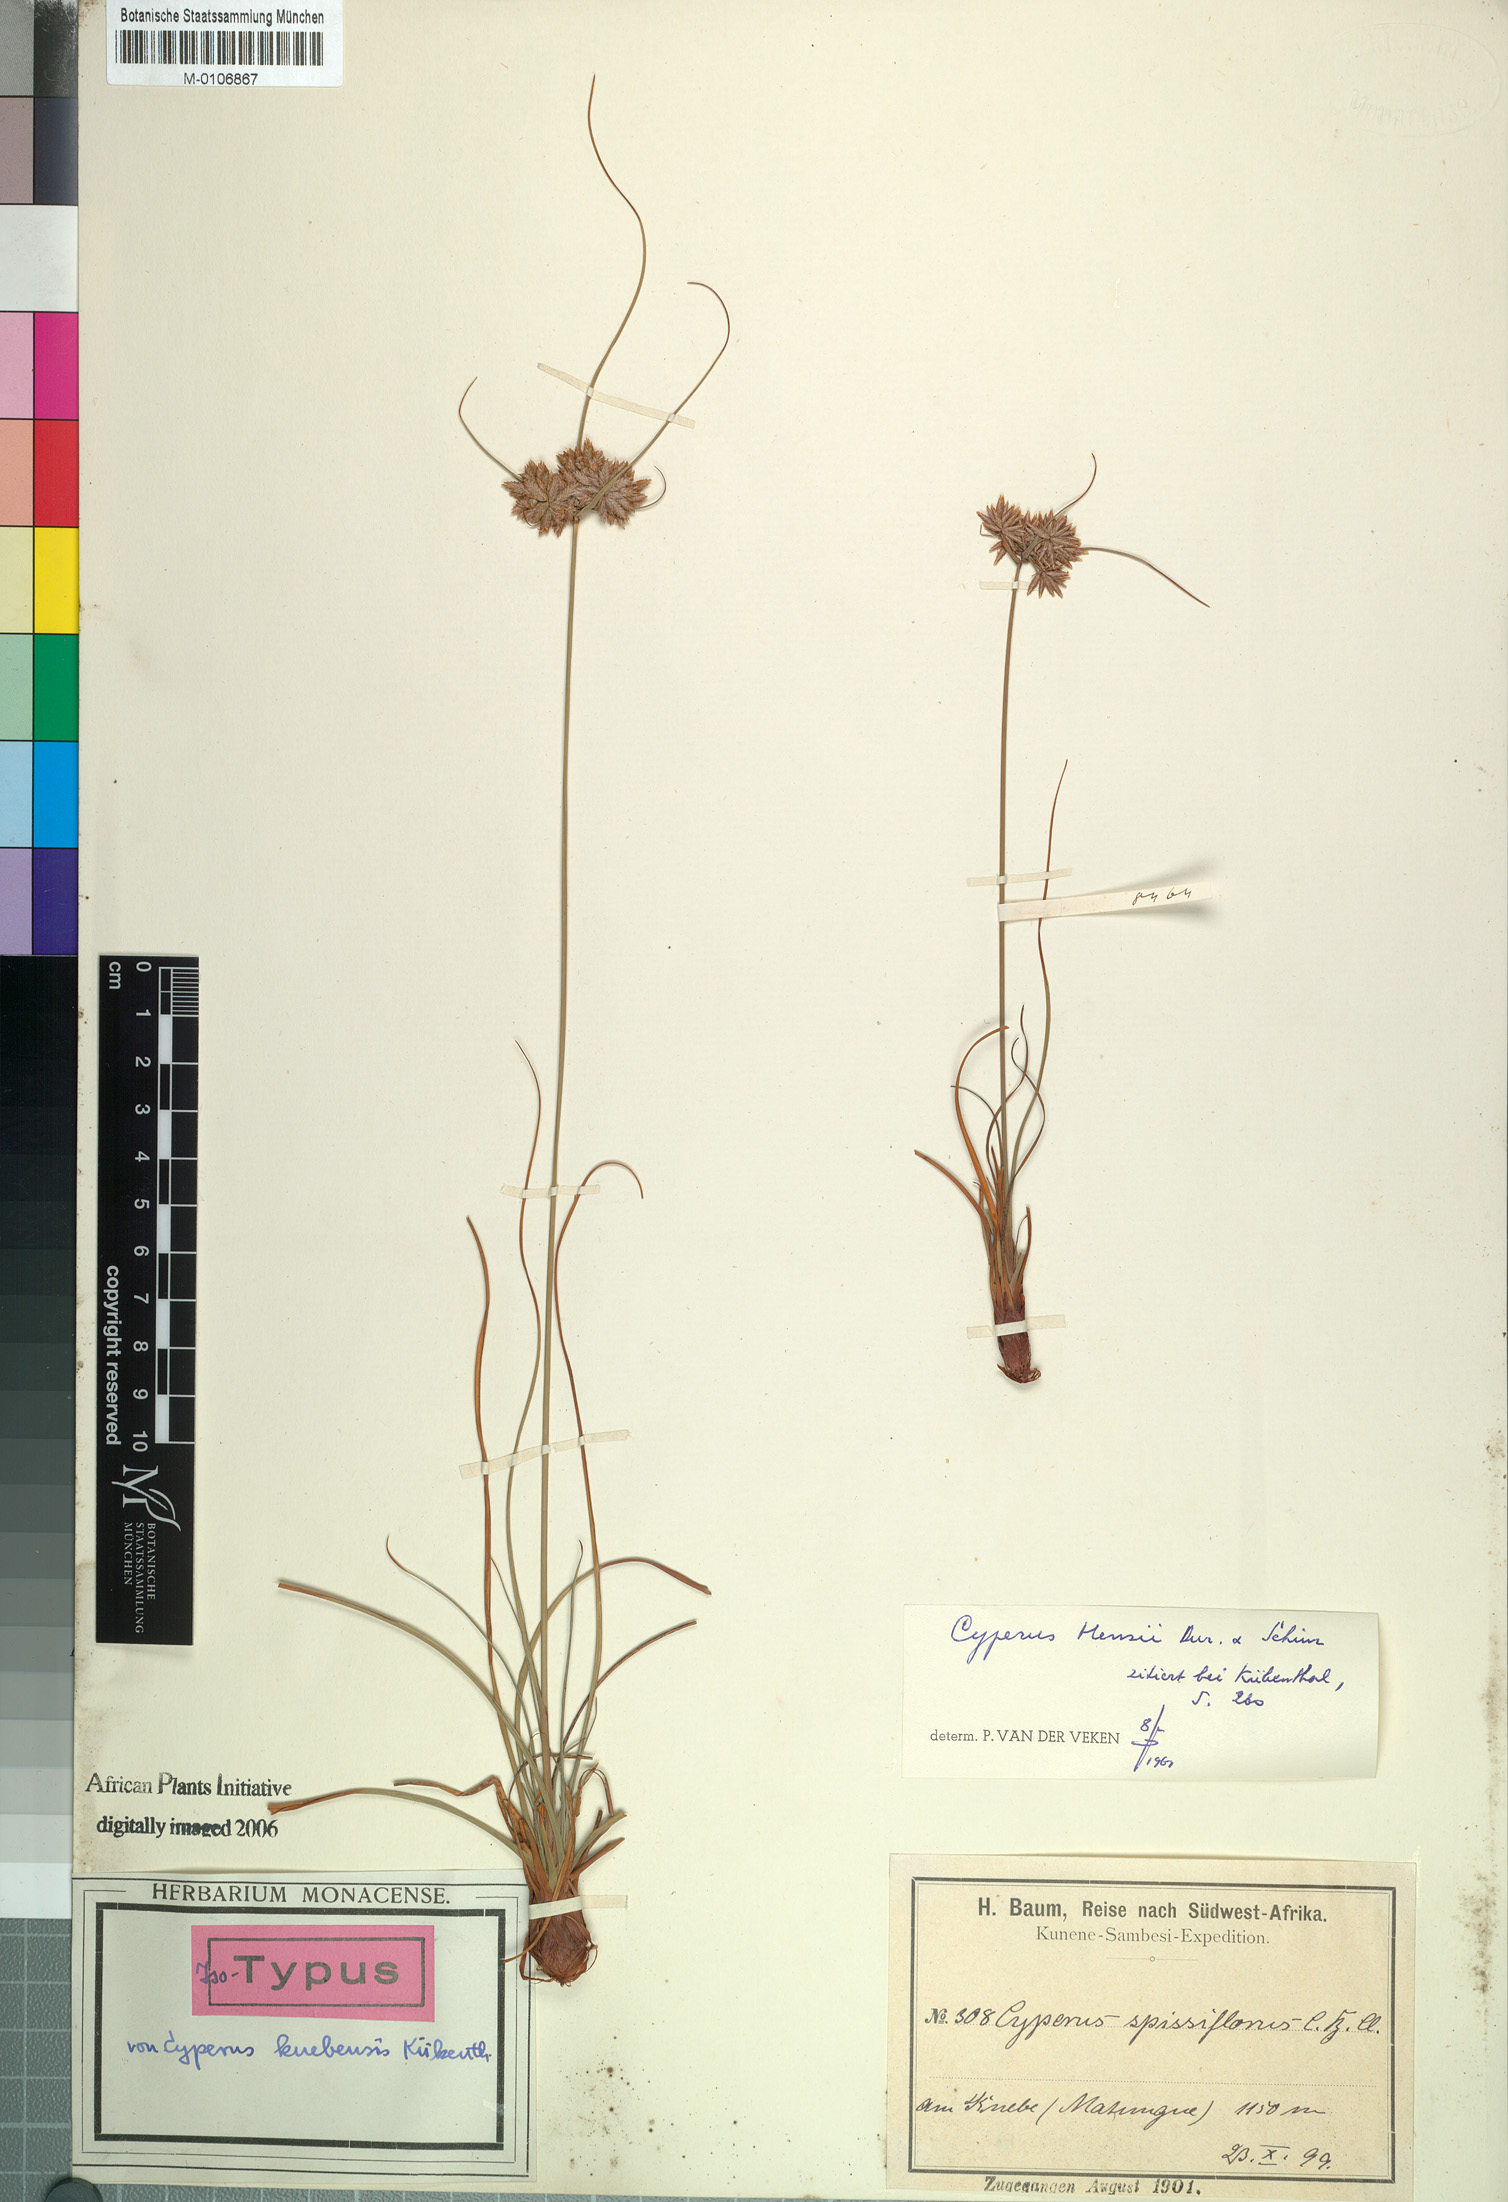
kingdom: Plantae
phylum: Tracheophyta
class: Liliopsida
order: Poales
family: Cyperaceae
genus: Cyperus
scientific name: Cyperus hensii
